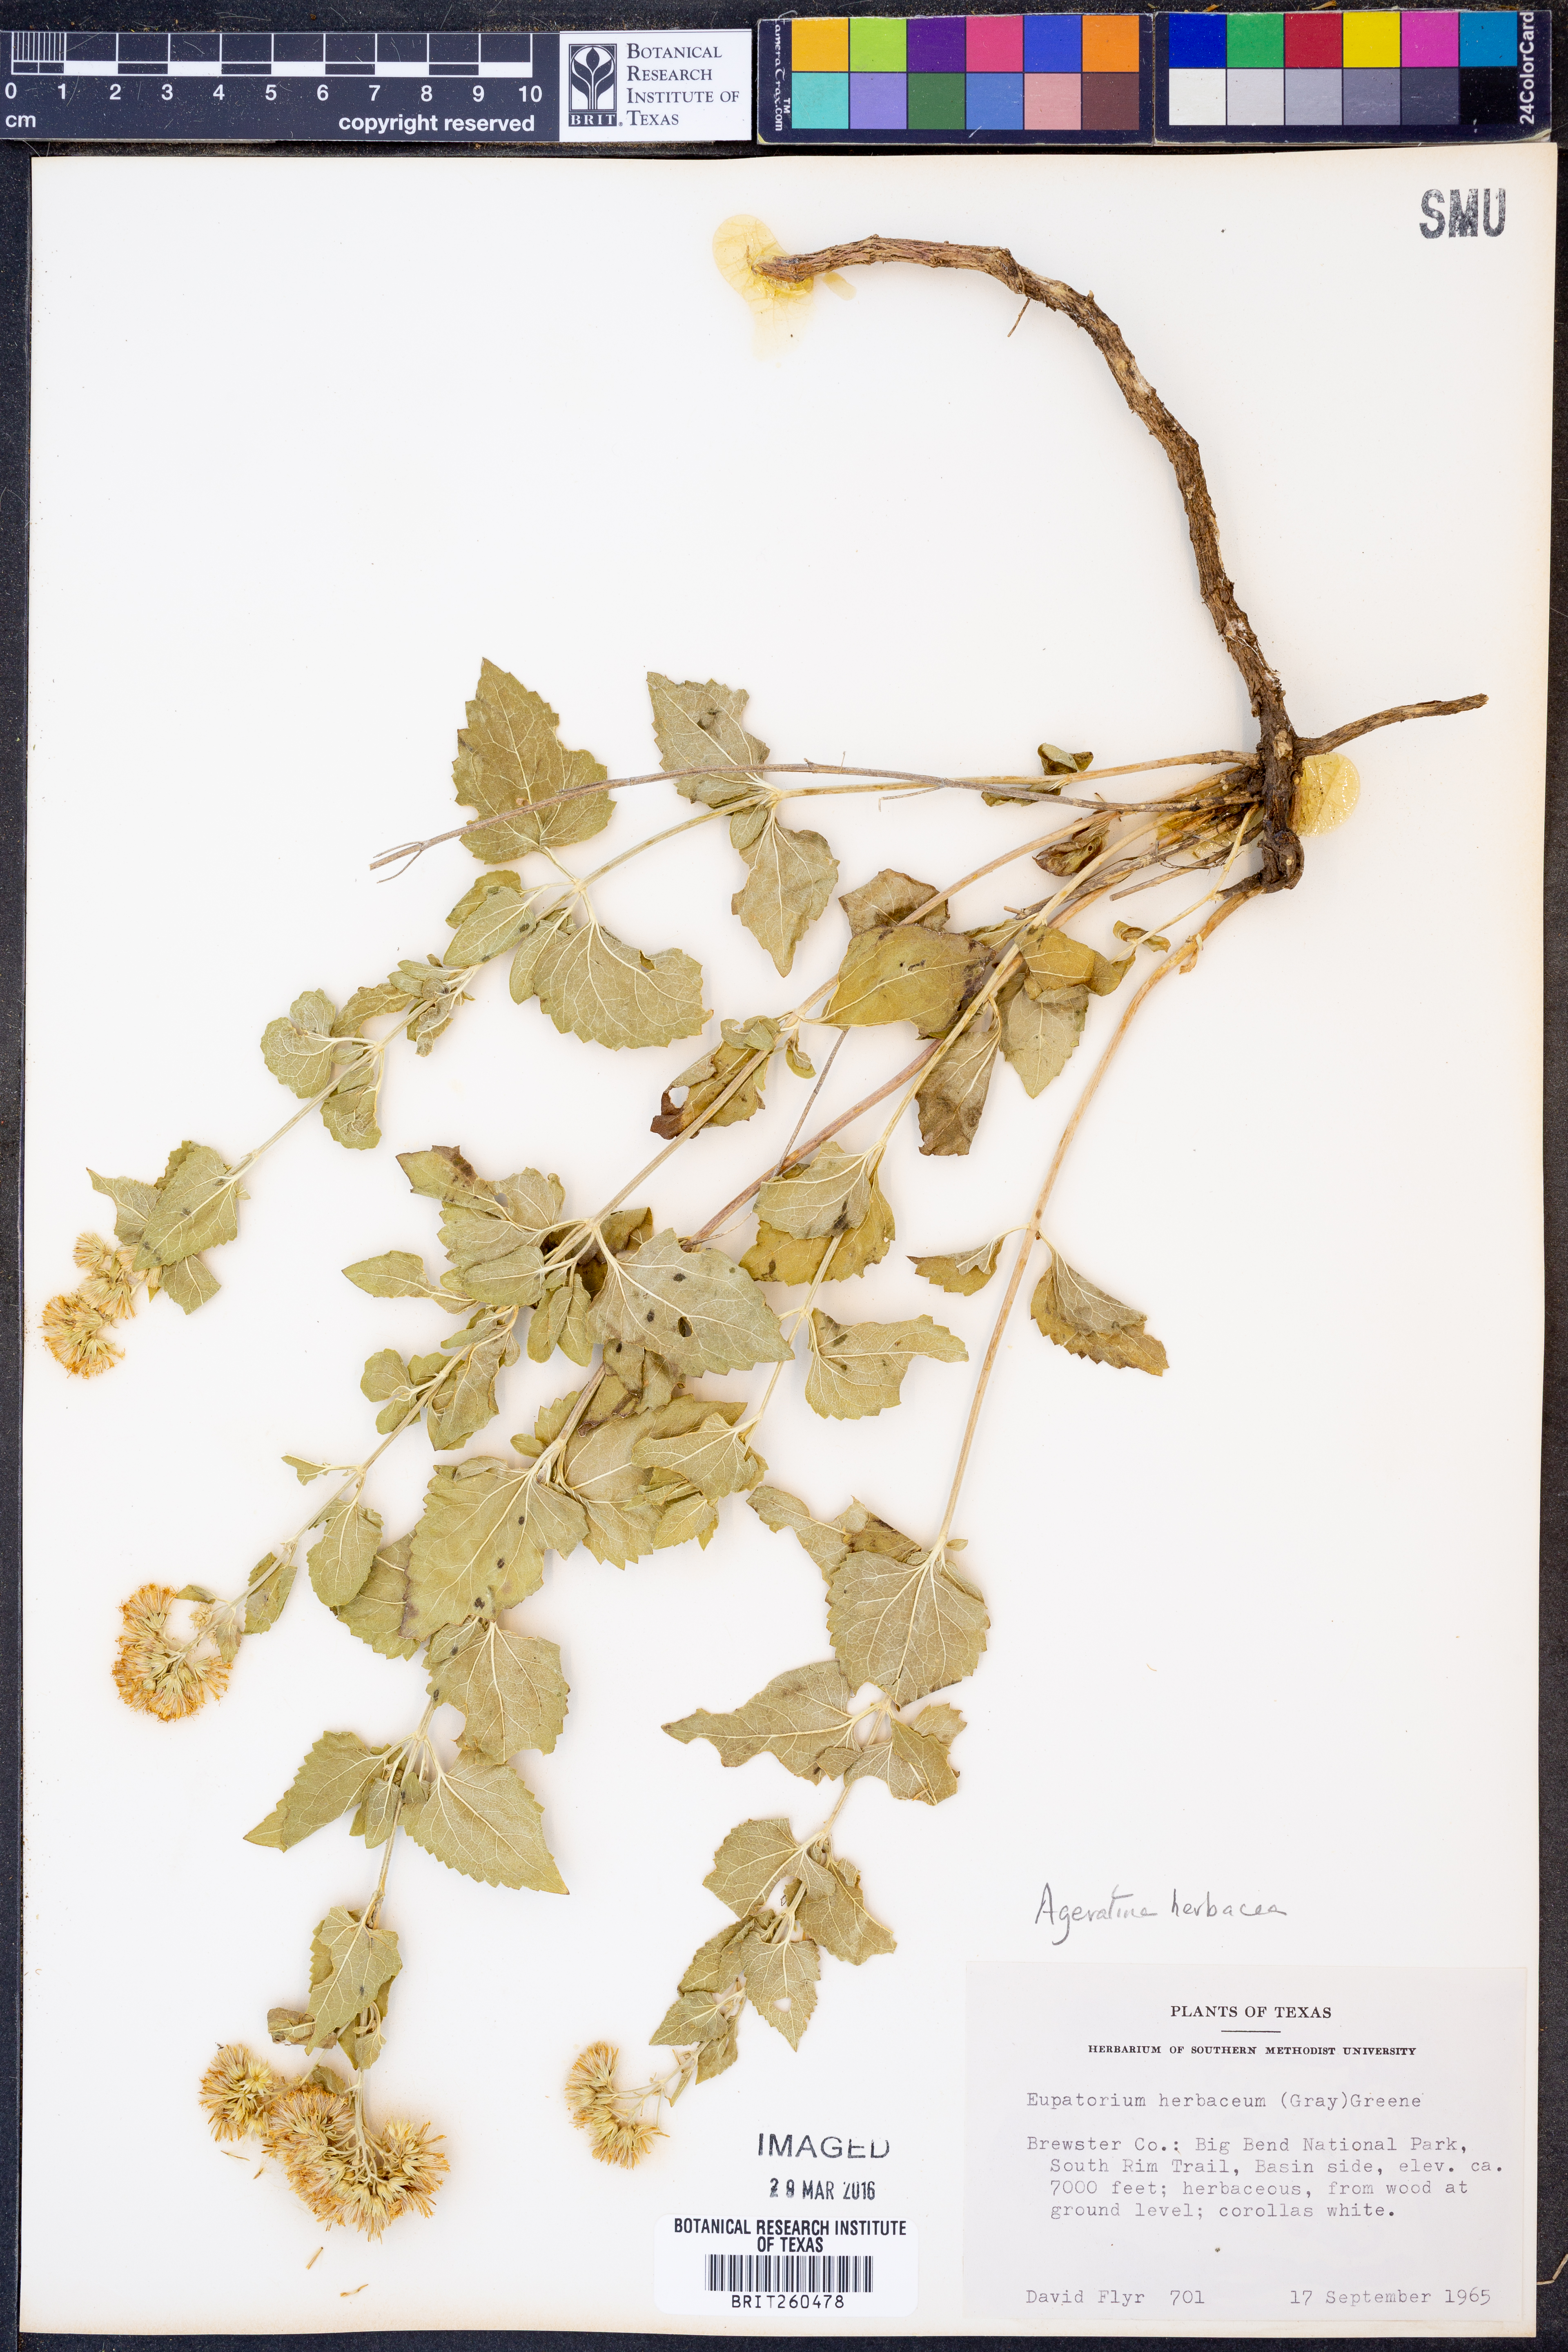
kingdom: Plantae
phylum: Tracheophyta
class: Magnoliopsida
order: Asterales
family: Asteraceae
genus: Ageratina
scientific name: Ageratina herbacea
